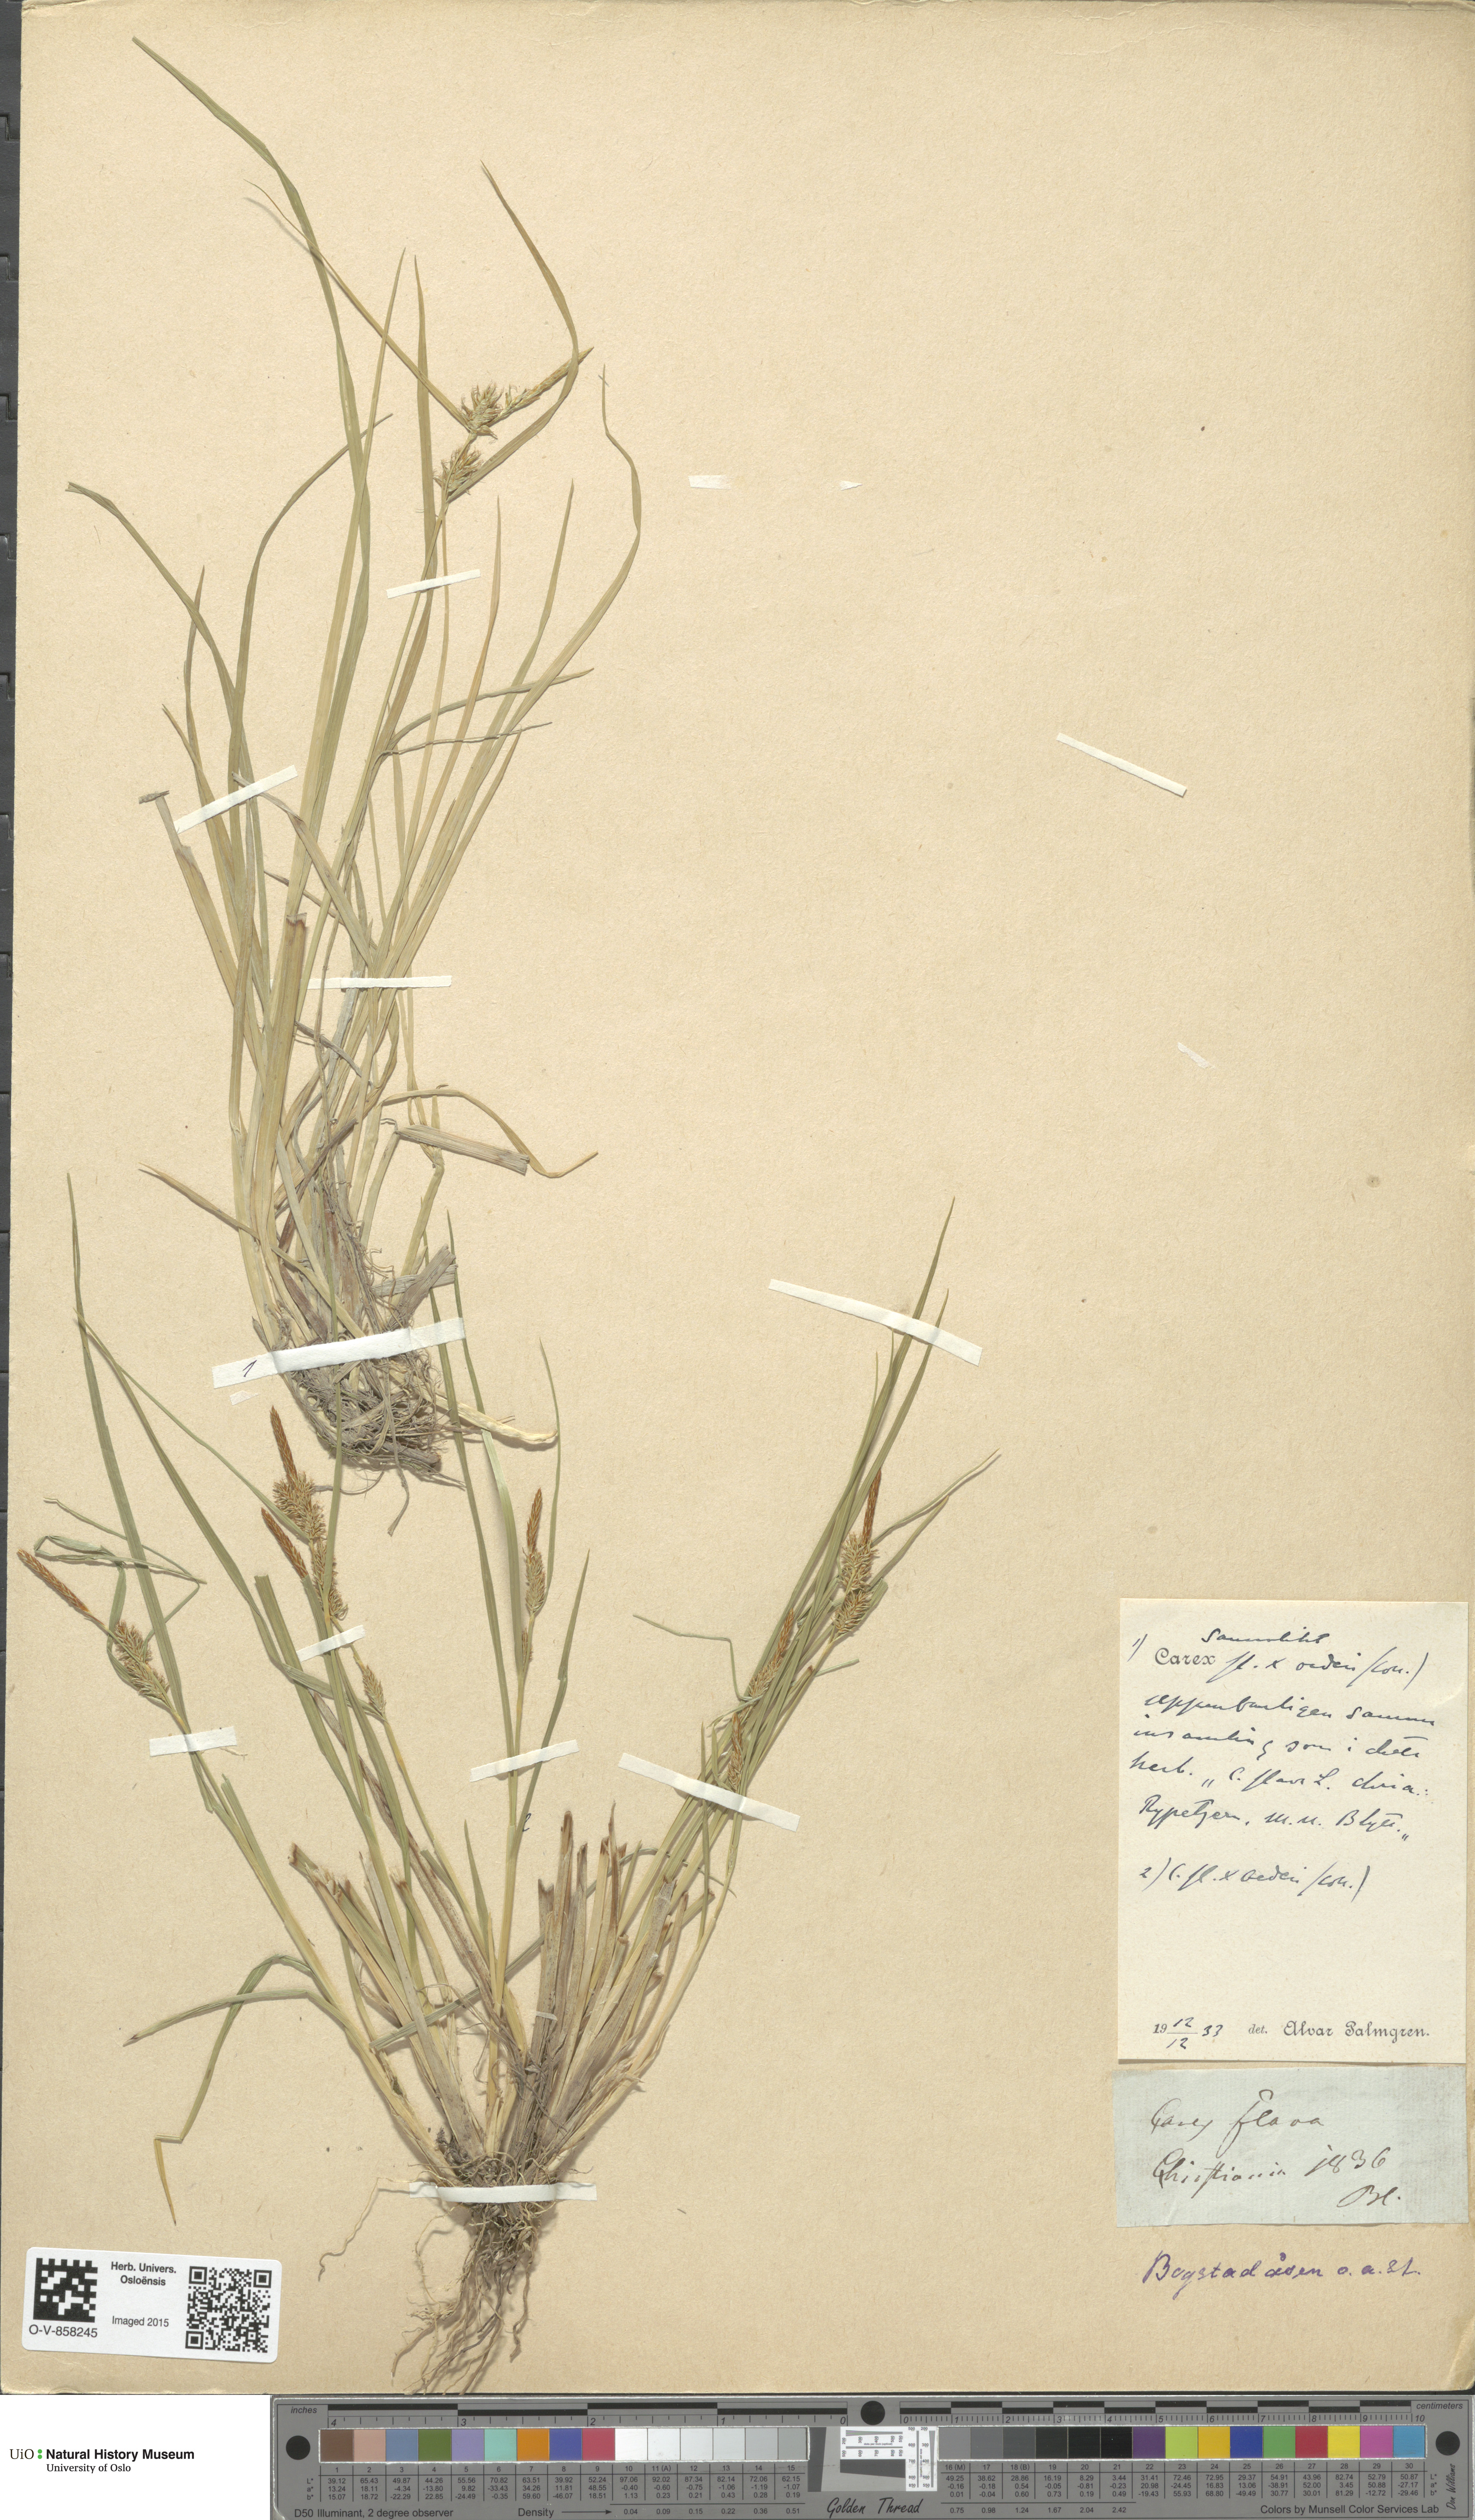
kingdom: Plantae
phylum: Tracheophyta
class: Liliopsida
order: Poales
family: Cyperaceae
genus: Carex
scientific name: Carex
